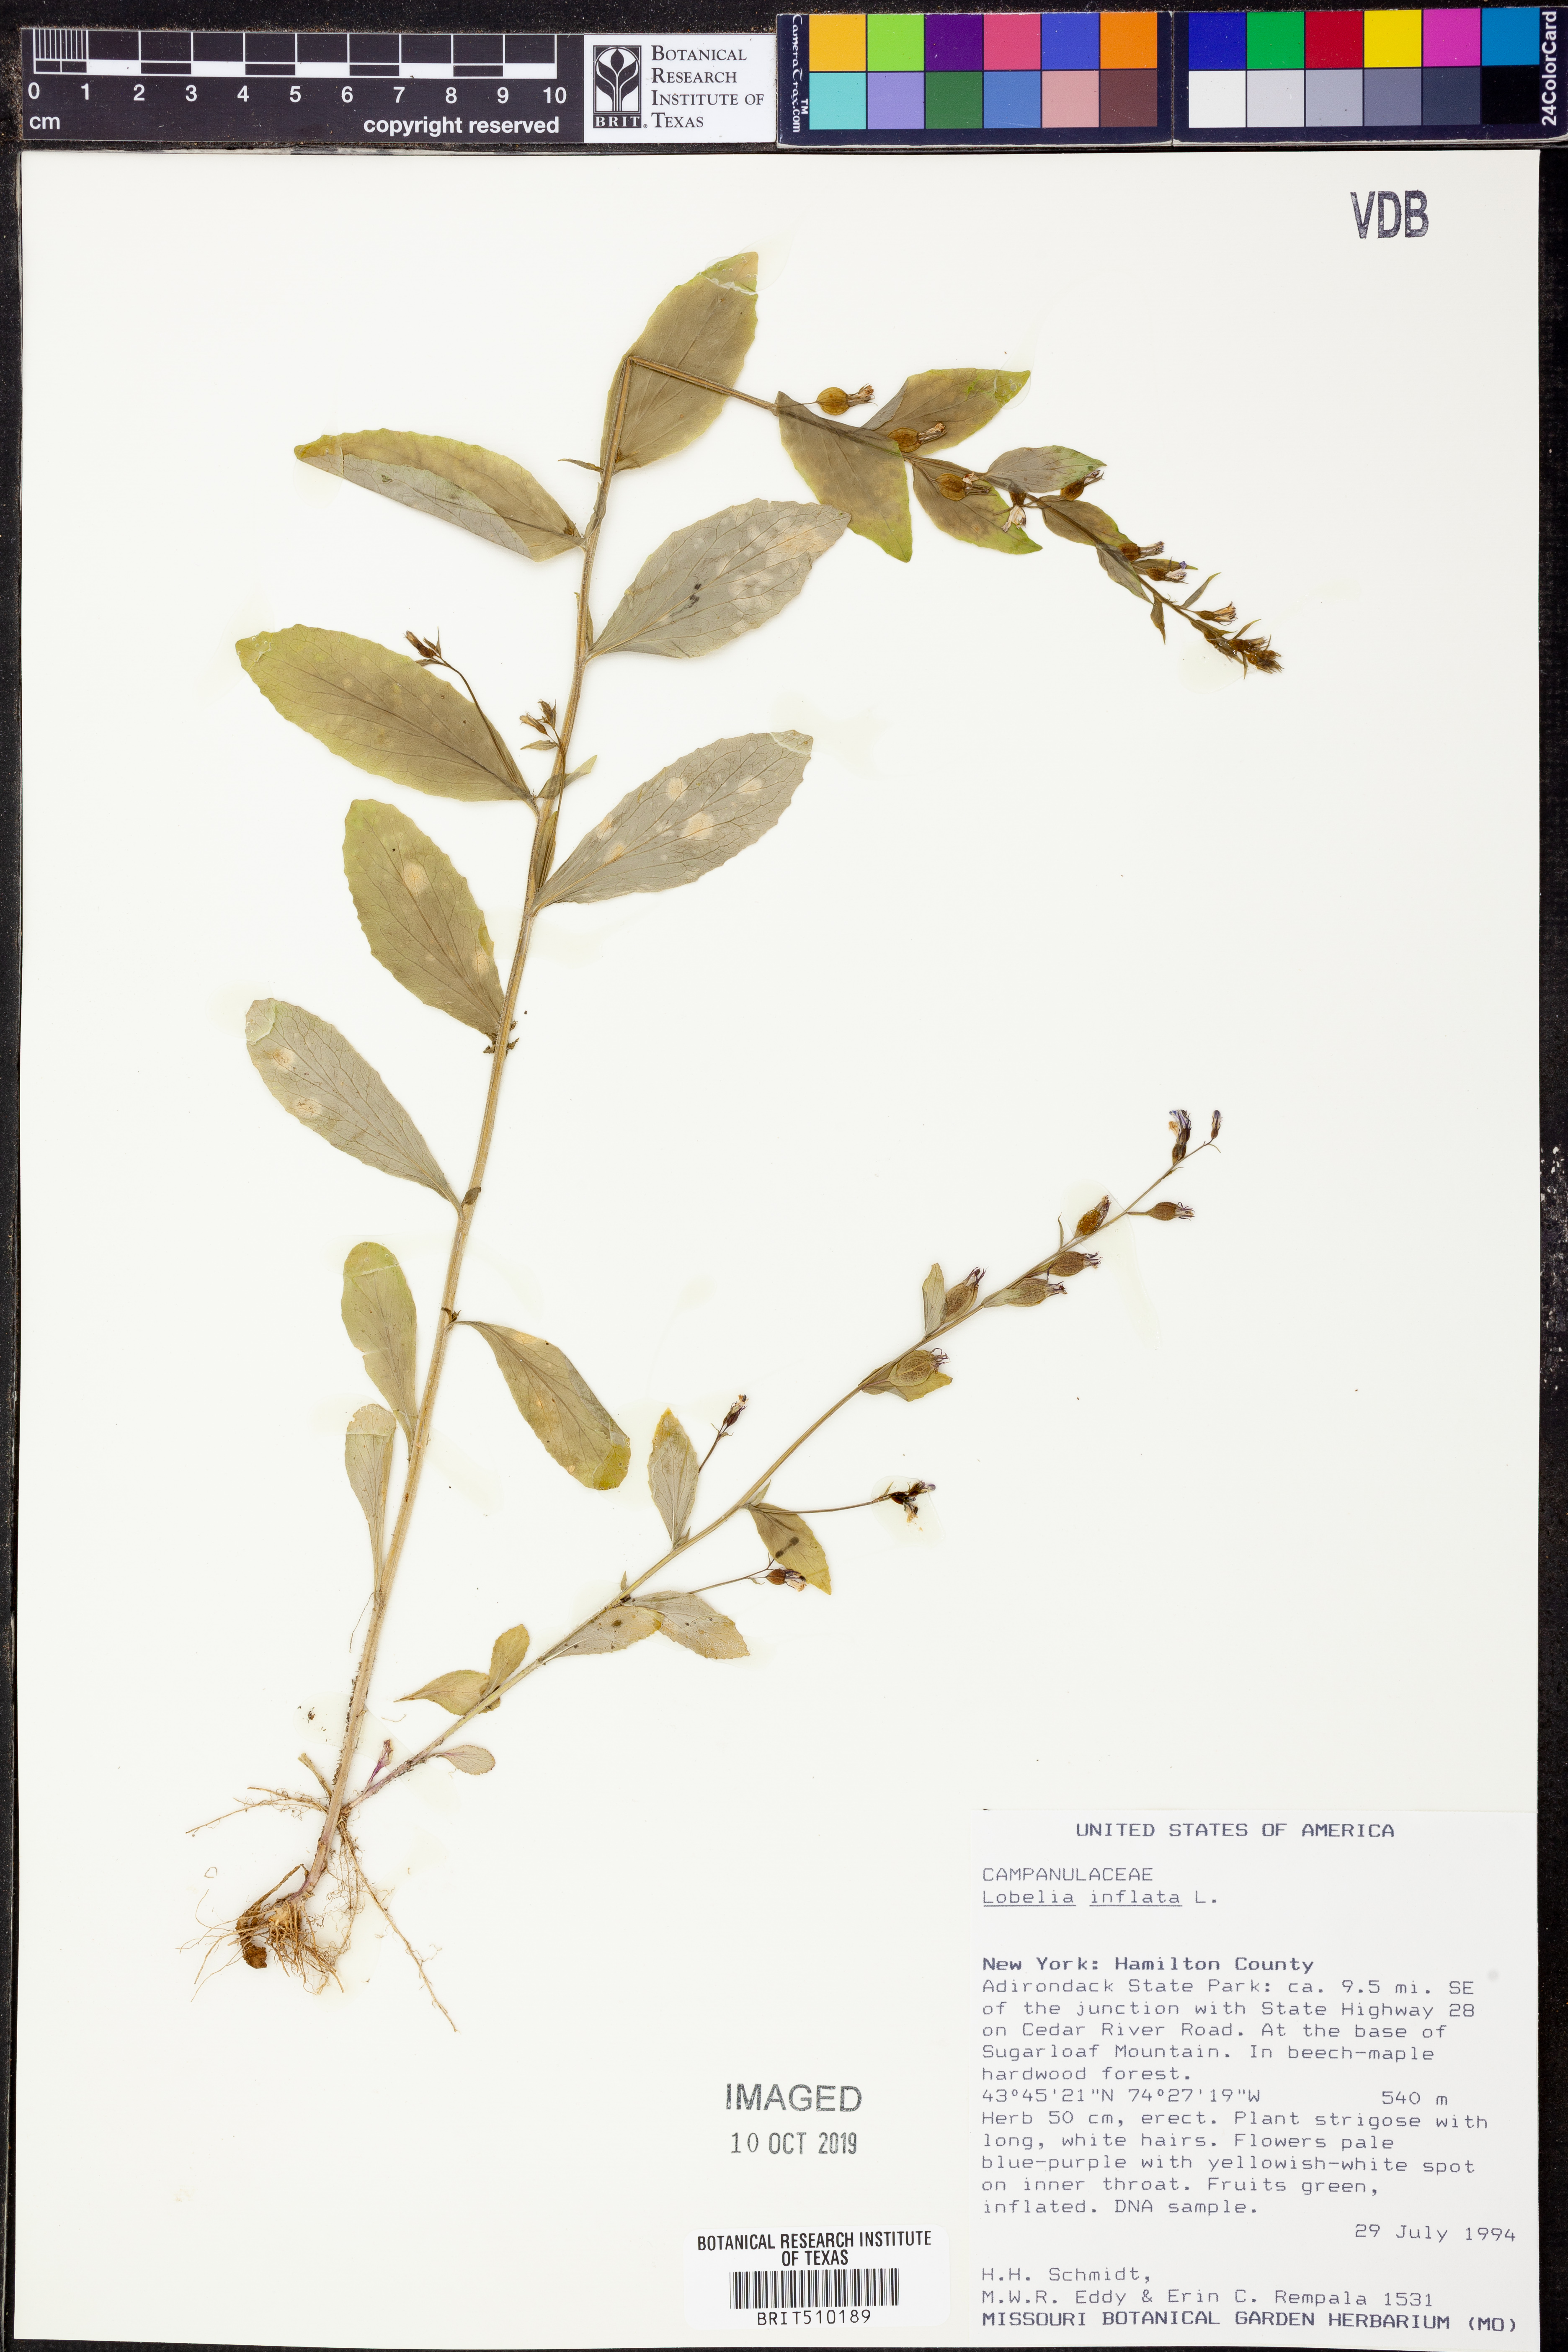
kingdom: Plantae
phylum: Tracheophyta
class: Magnoliopsida
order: Asterales
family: Campanulaceae
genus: Lobelia
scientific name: Lobelia inflata
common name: Indian tobacco
